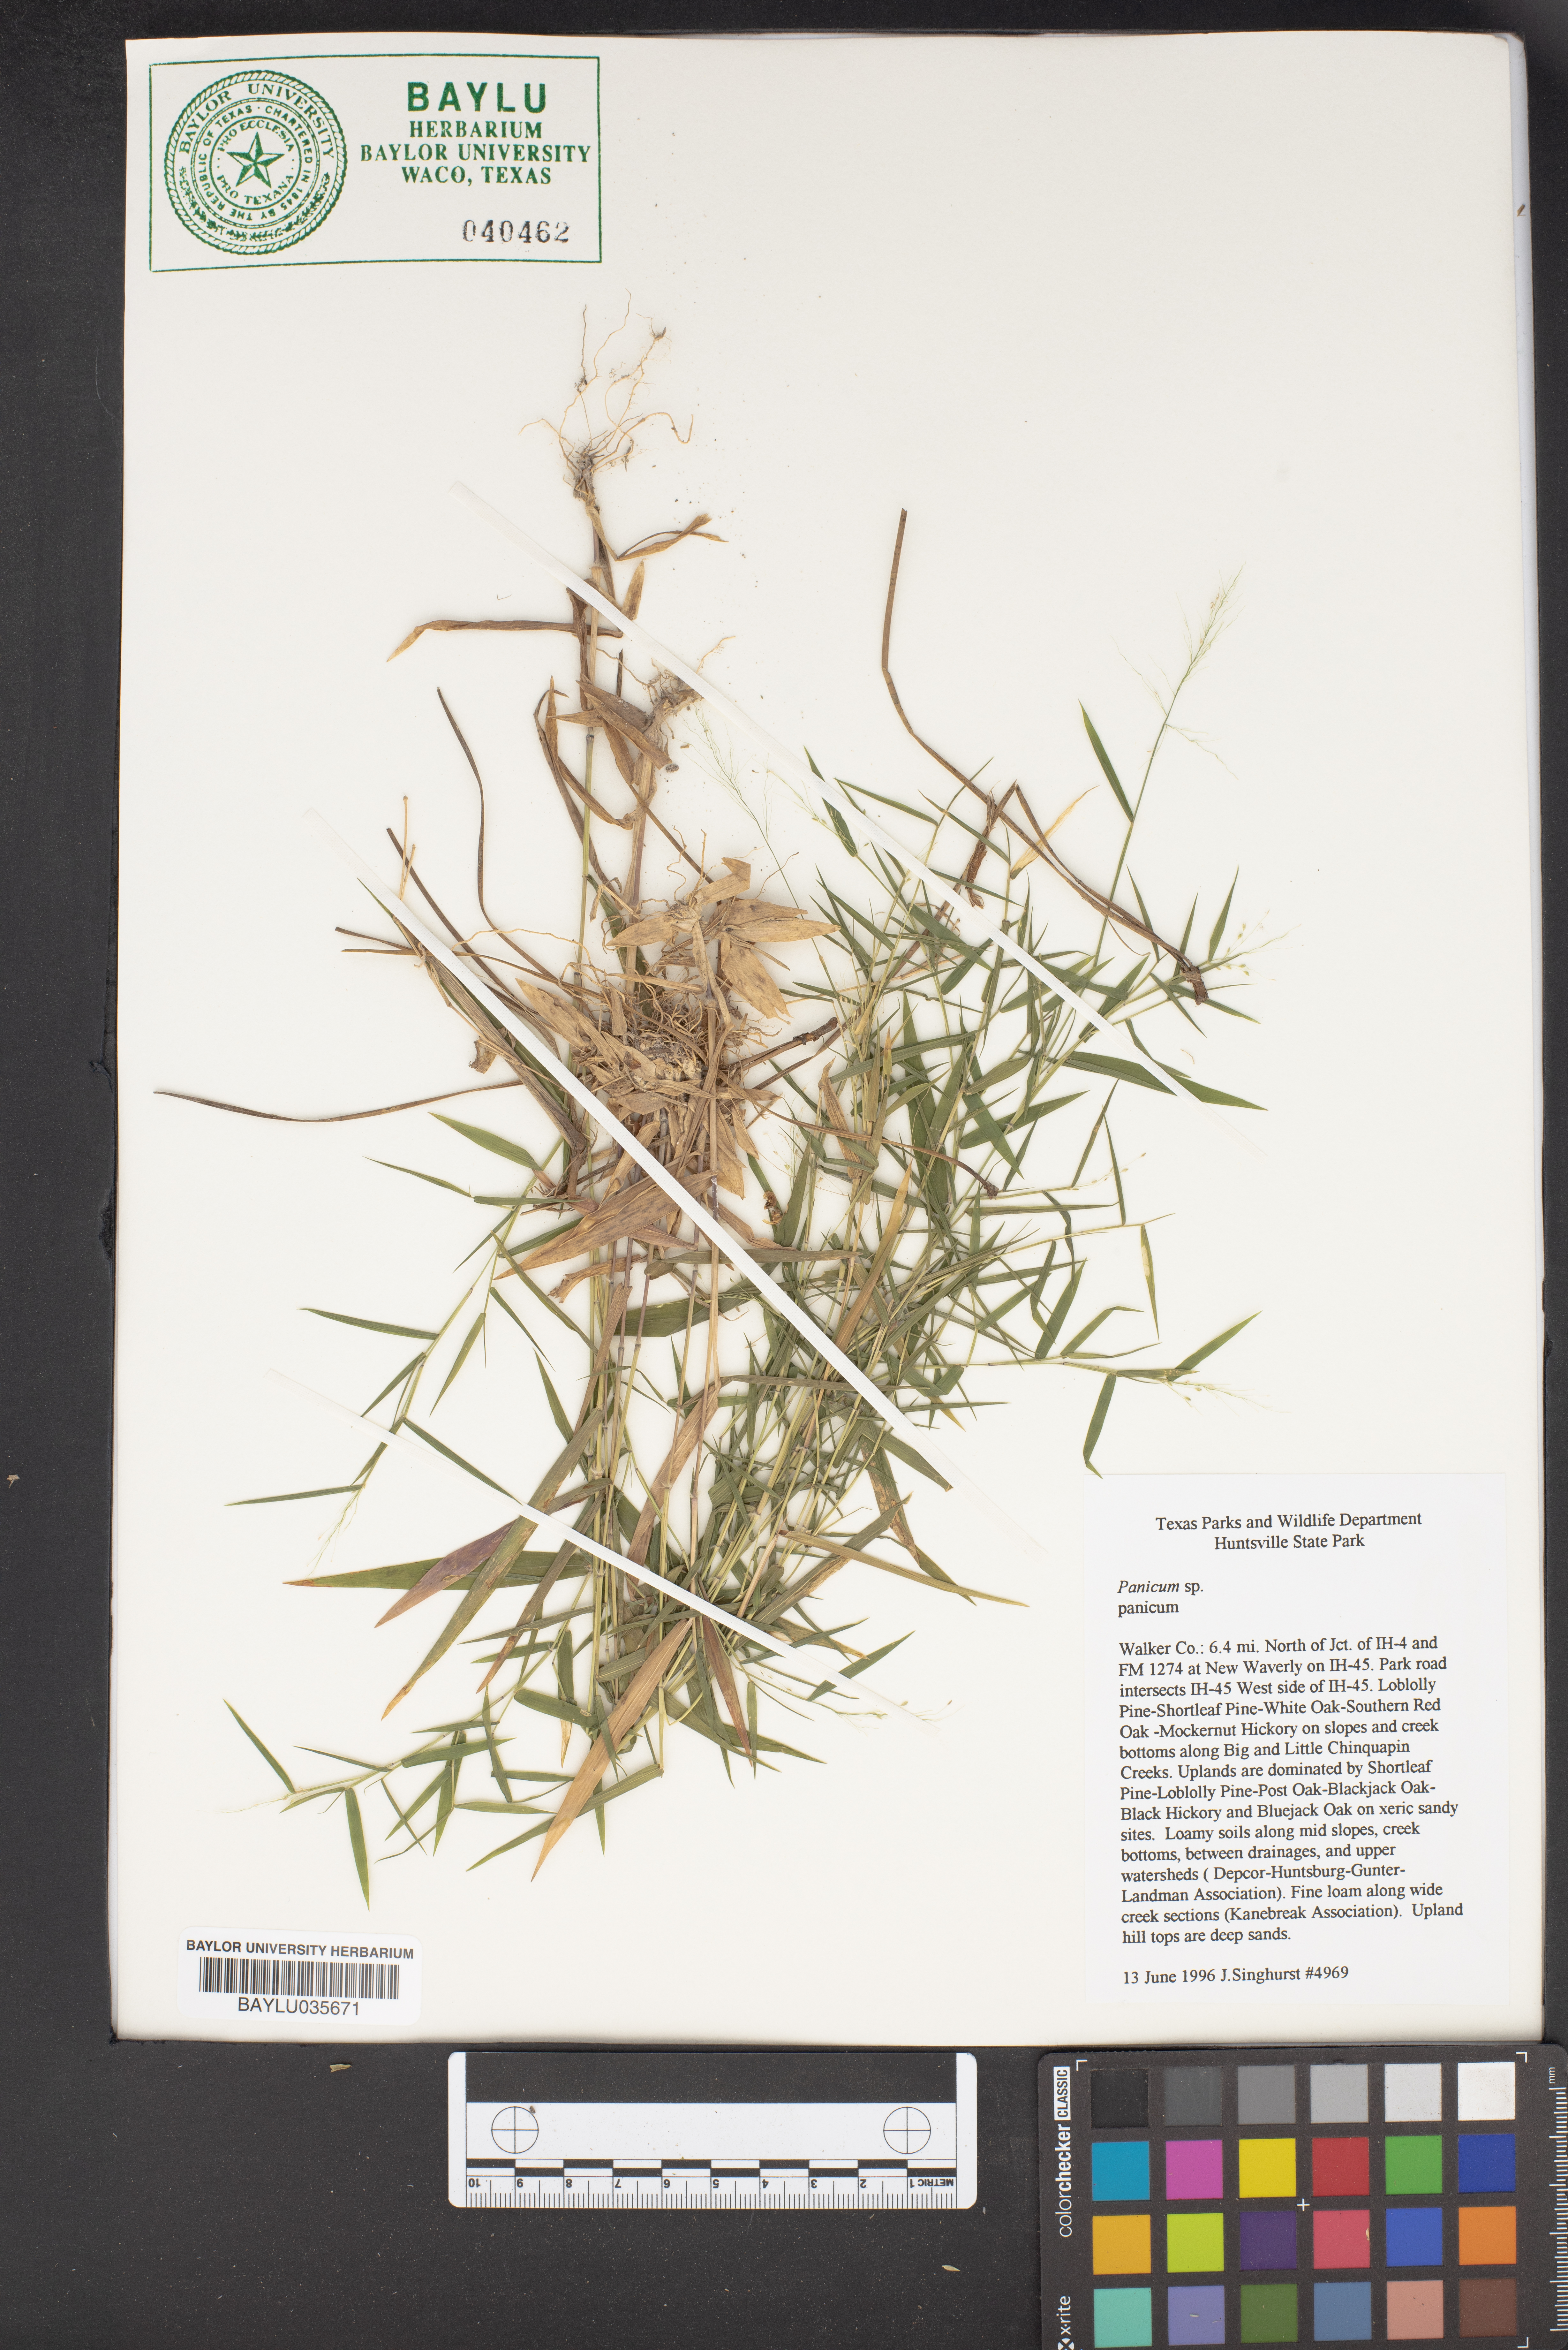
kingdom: Plantae
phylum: Tracheophyta
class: Liliopsida
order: Poales
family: Poaceae
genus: Panicum
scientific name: Panicum
